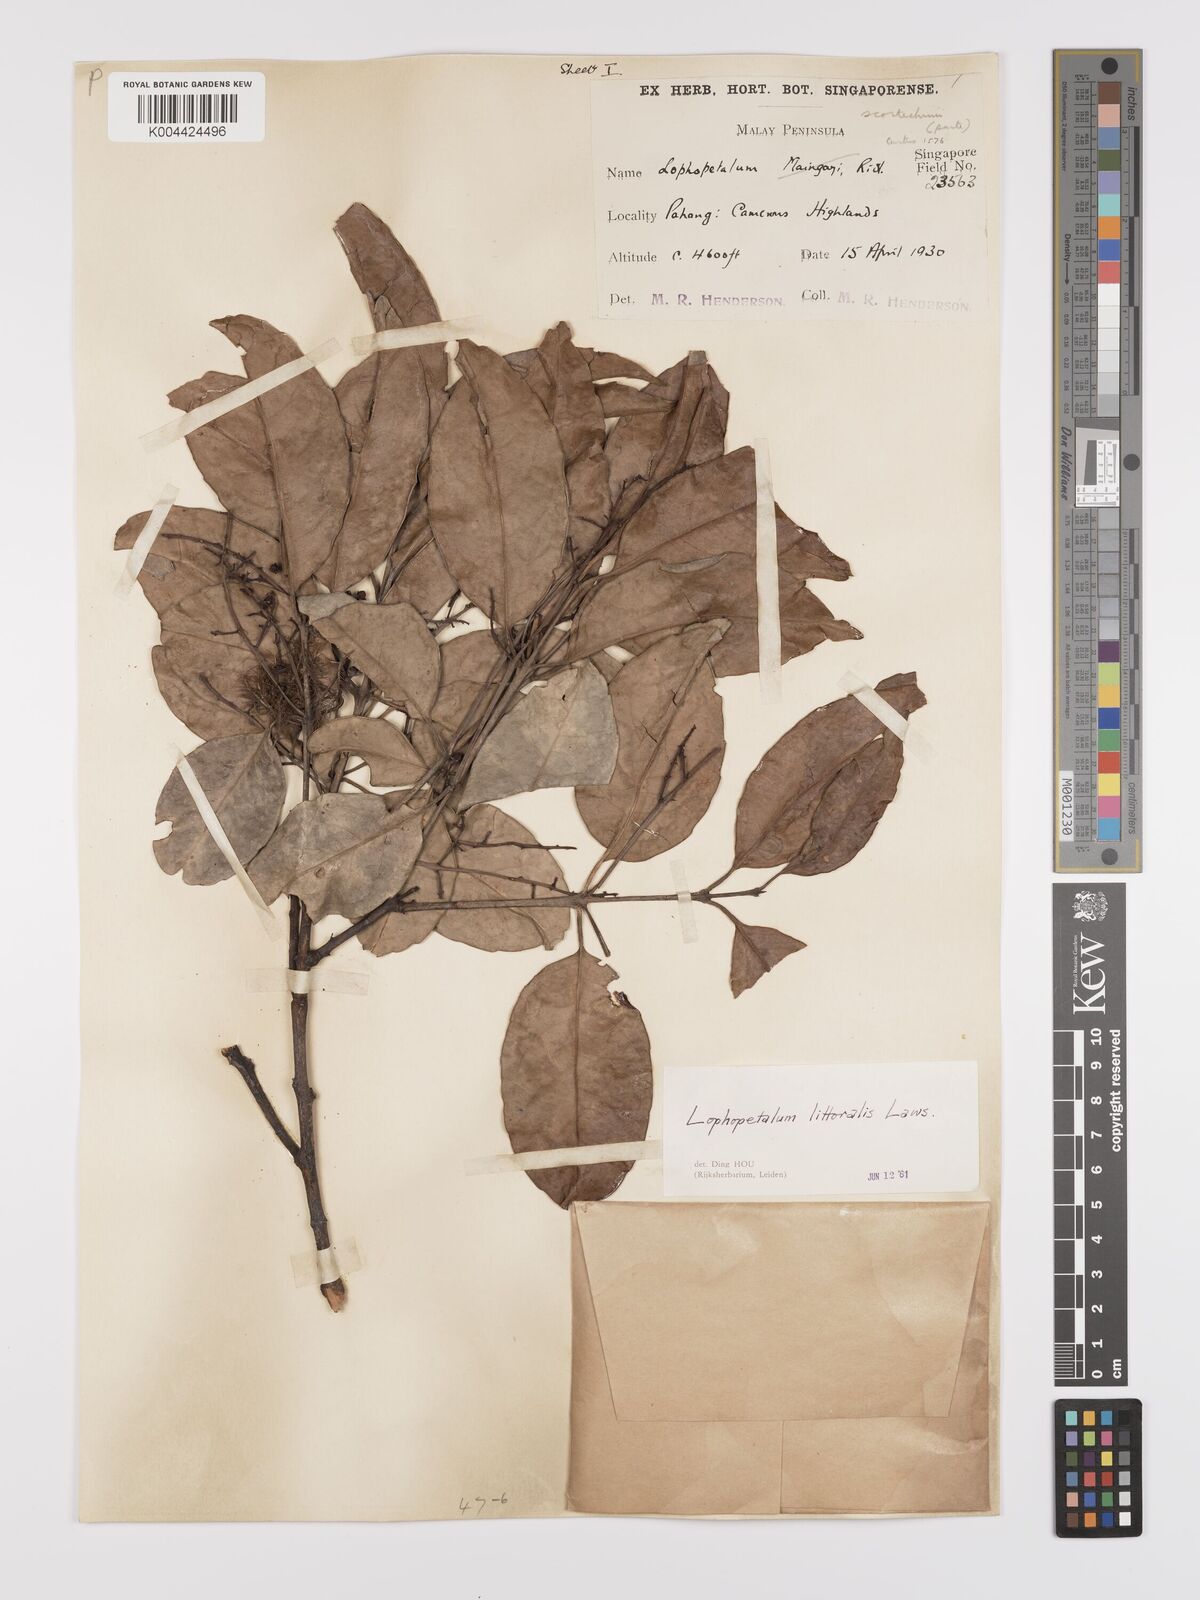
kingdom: Plantae
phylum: Tracheophyta
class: Magnoliopsida
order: Celastrales
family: Celastraceae
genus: Kokoona
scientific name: Kokoona littoralis
